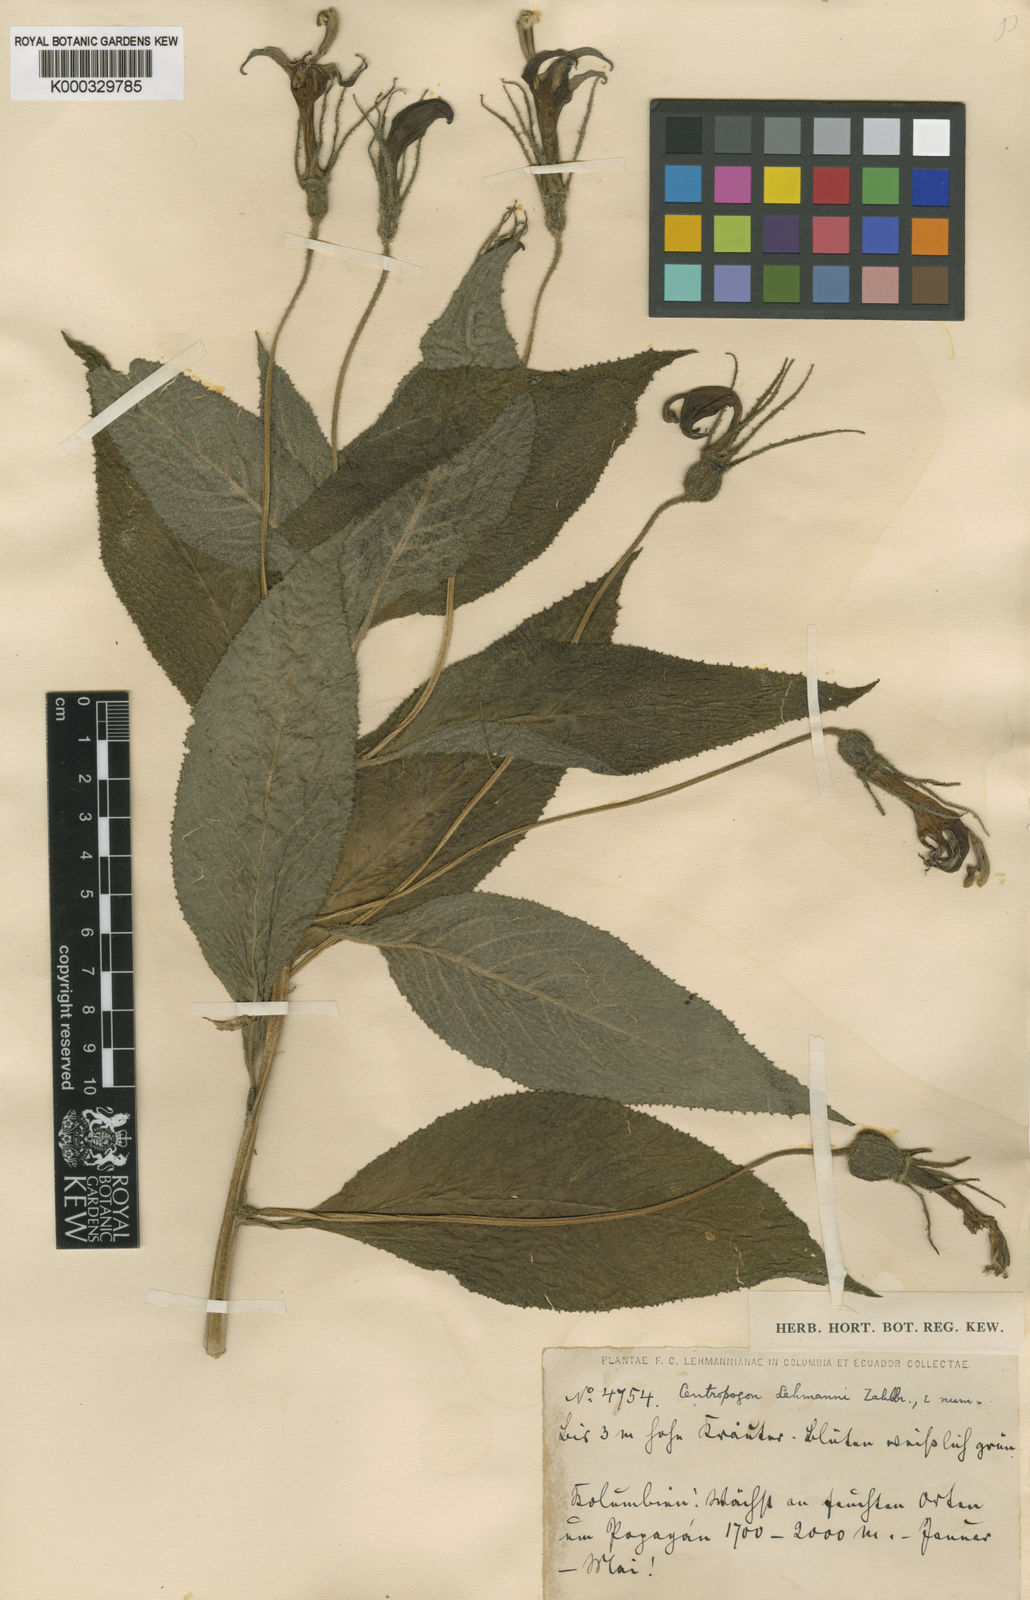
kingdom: Plantae
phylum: Tracheophyta
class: Magnoliopsida
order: Asterales
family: Campanulaceae
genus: Centropogon
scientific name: Centropogon lehmannii
